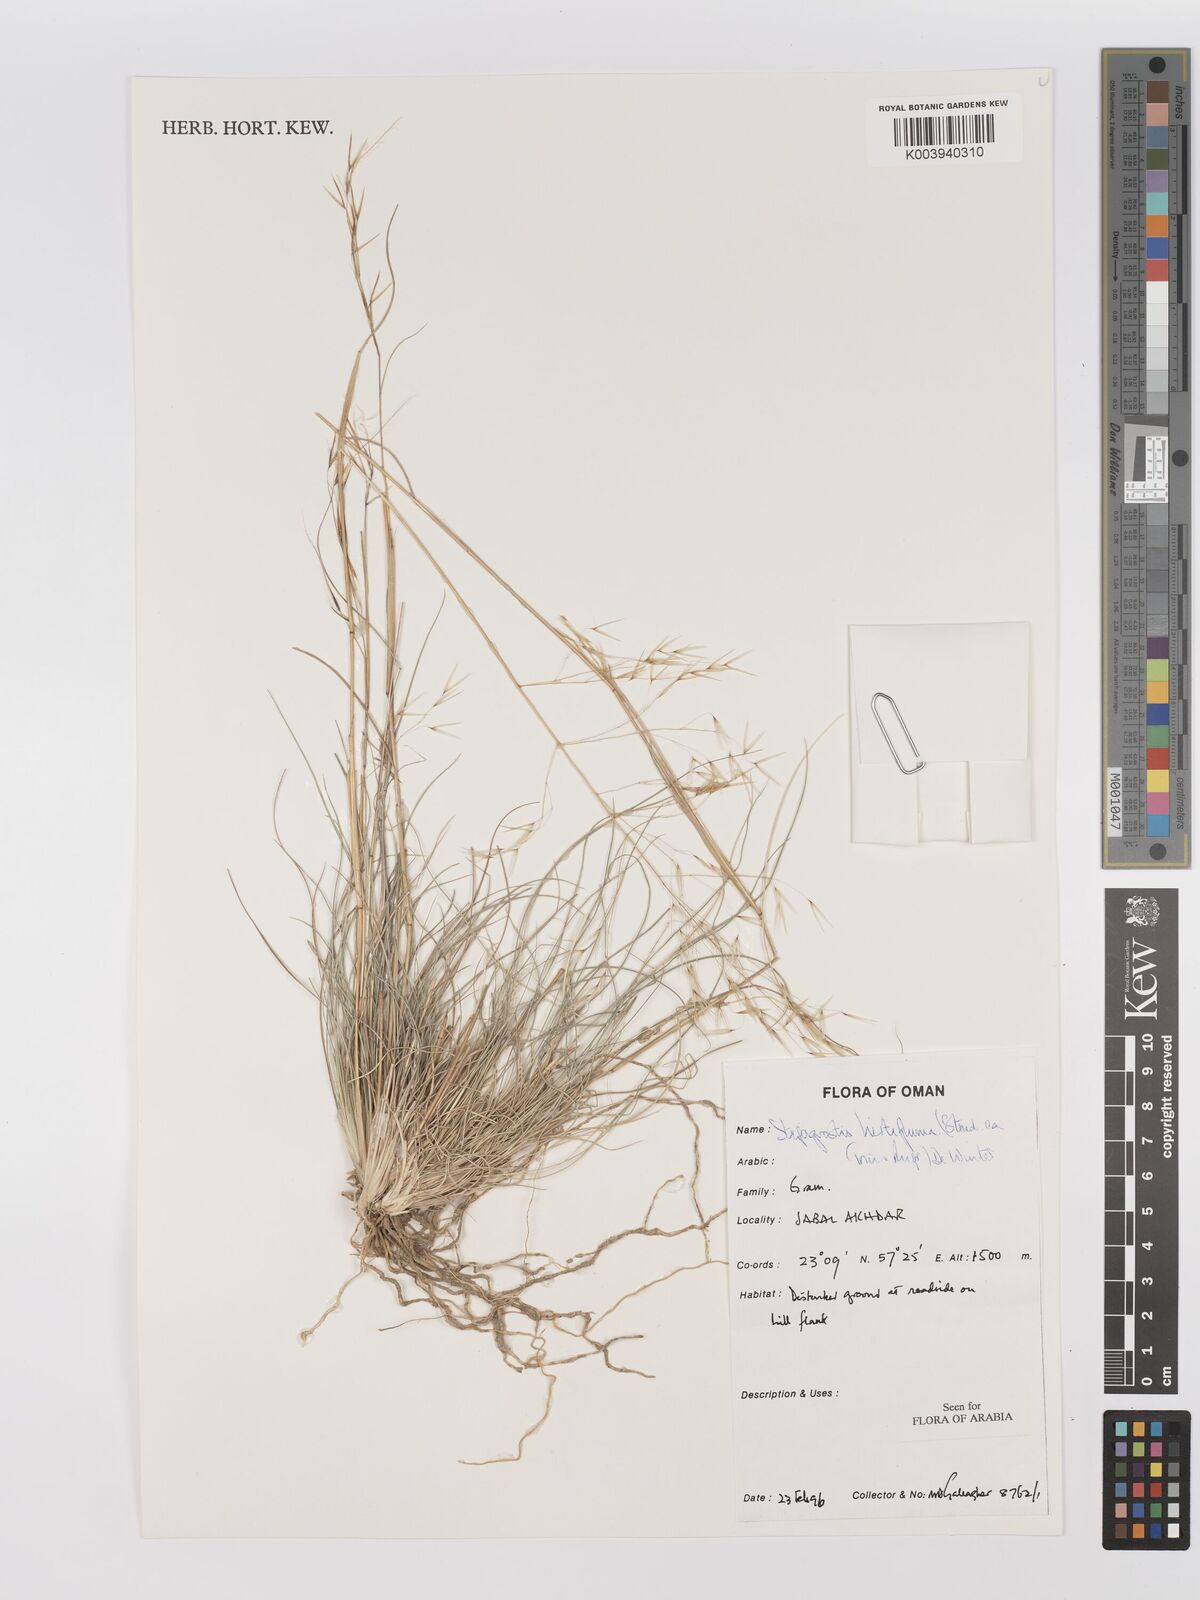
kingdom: Plantae
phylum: Tracheophyta
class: Liliopsida
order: Poales
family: Poaceae
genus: Stipagrostis
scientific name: Stipagrostis hirtigluma
